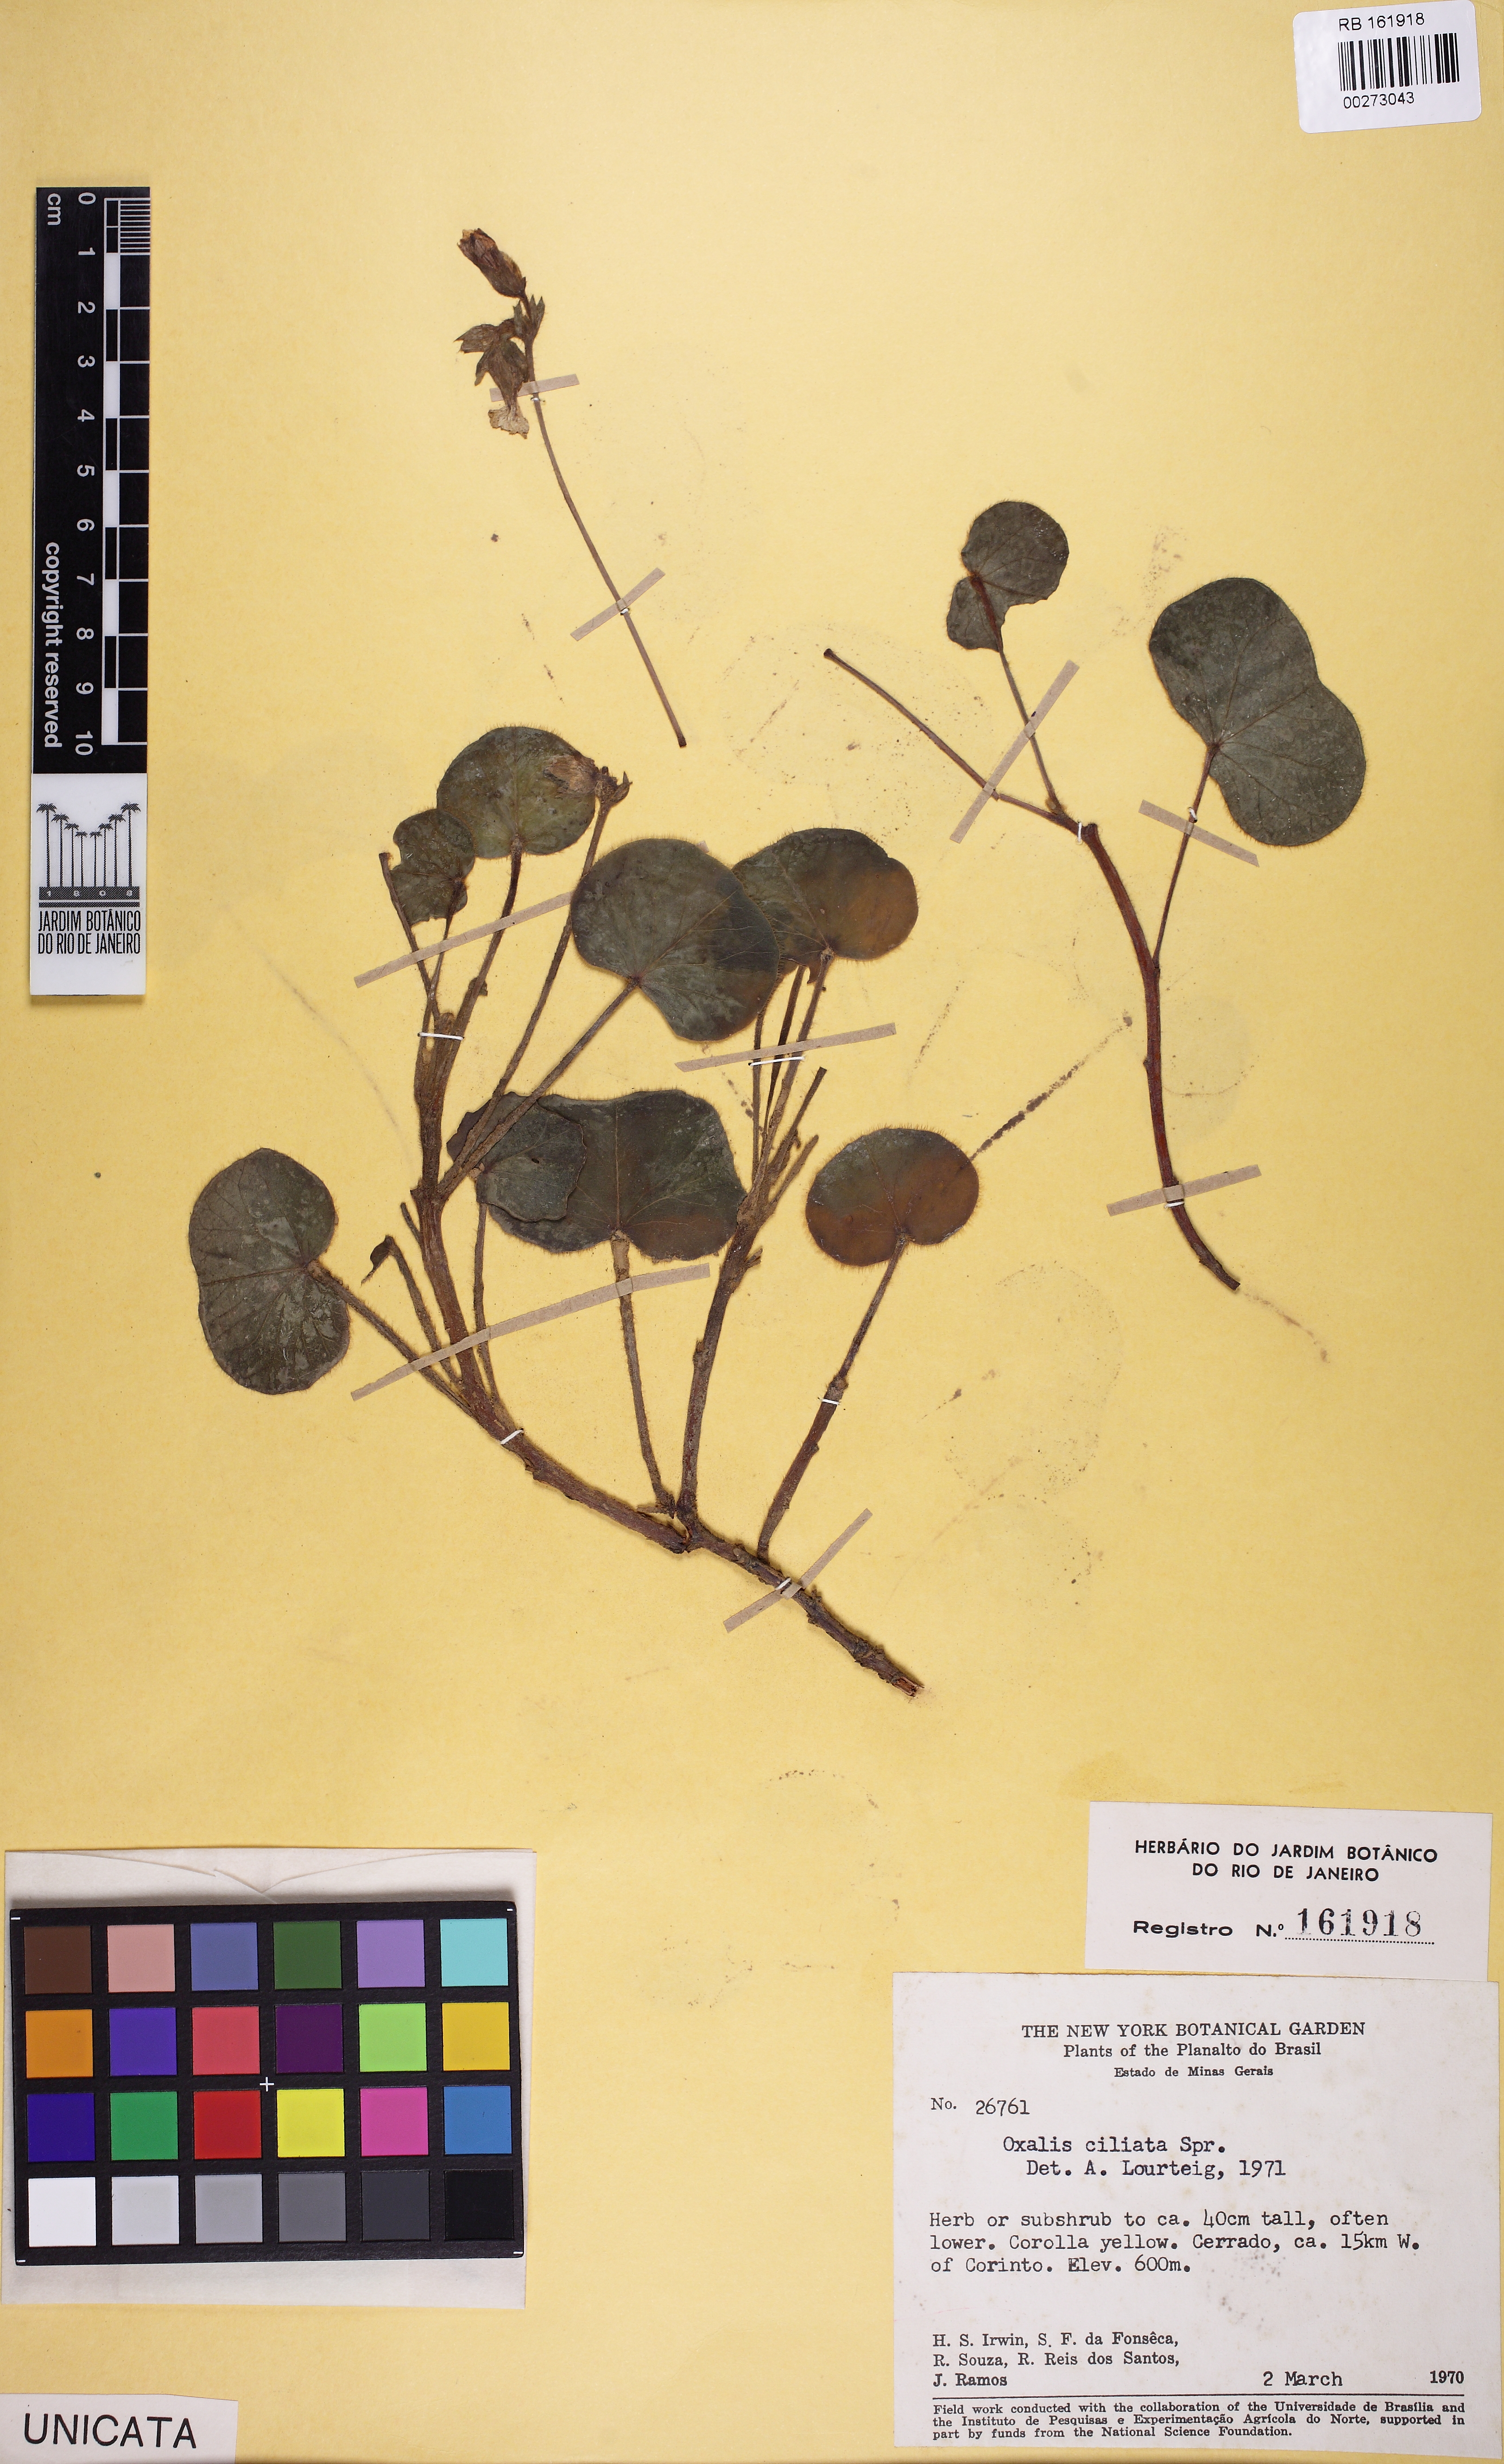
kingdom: Plantae
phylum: Tracheophyta
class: Magnoliopsida
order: Oxalidales
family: Oxalidaceae
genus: Oxalis
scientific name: Oxalis ciliata
